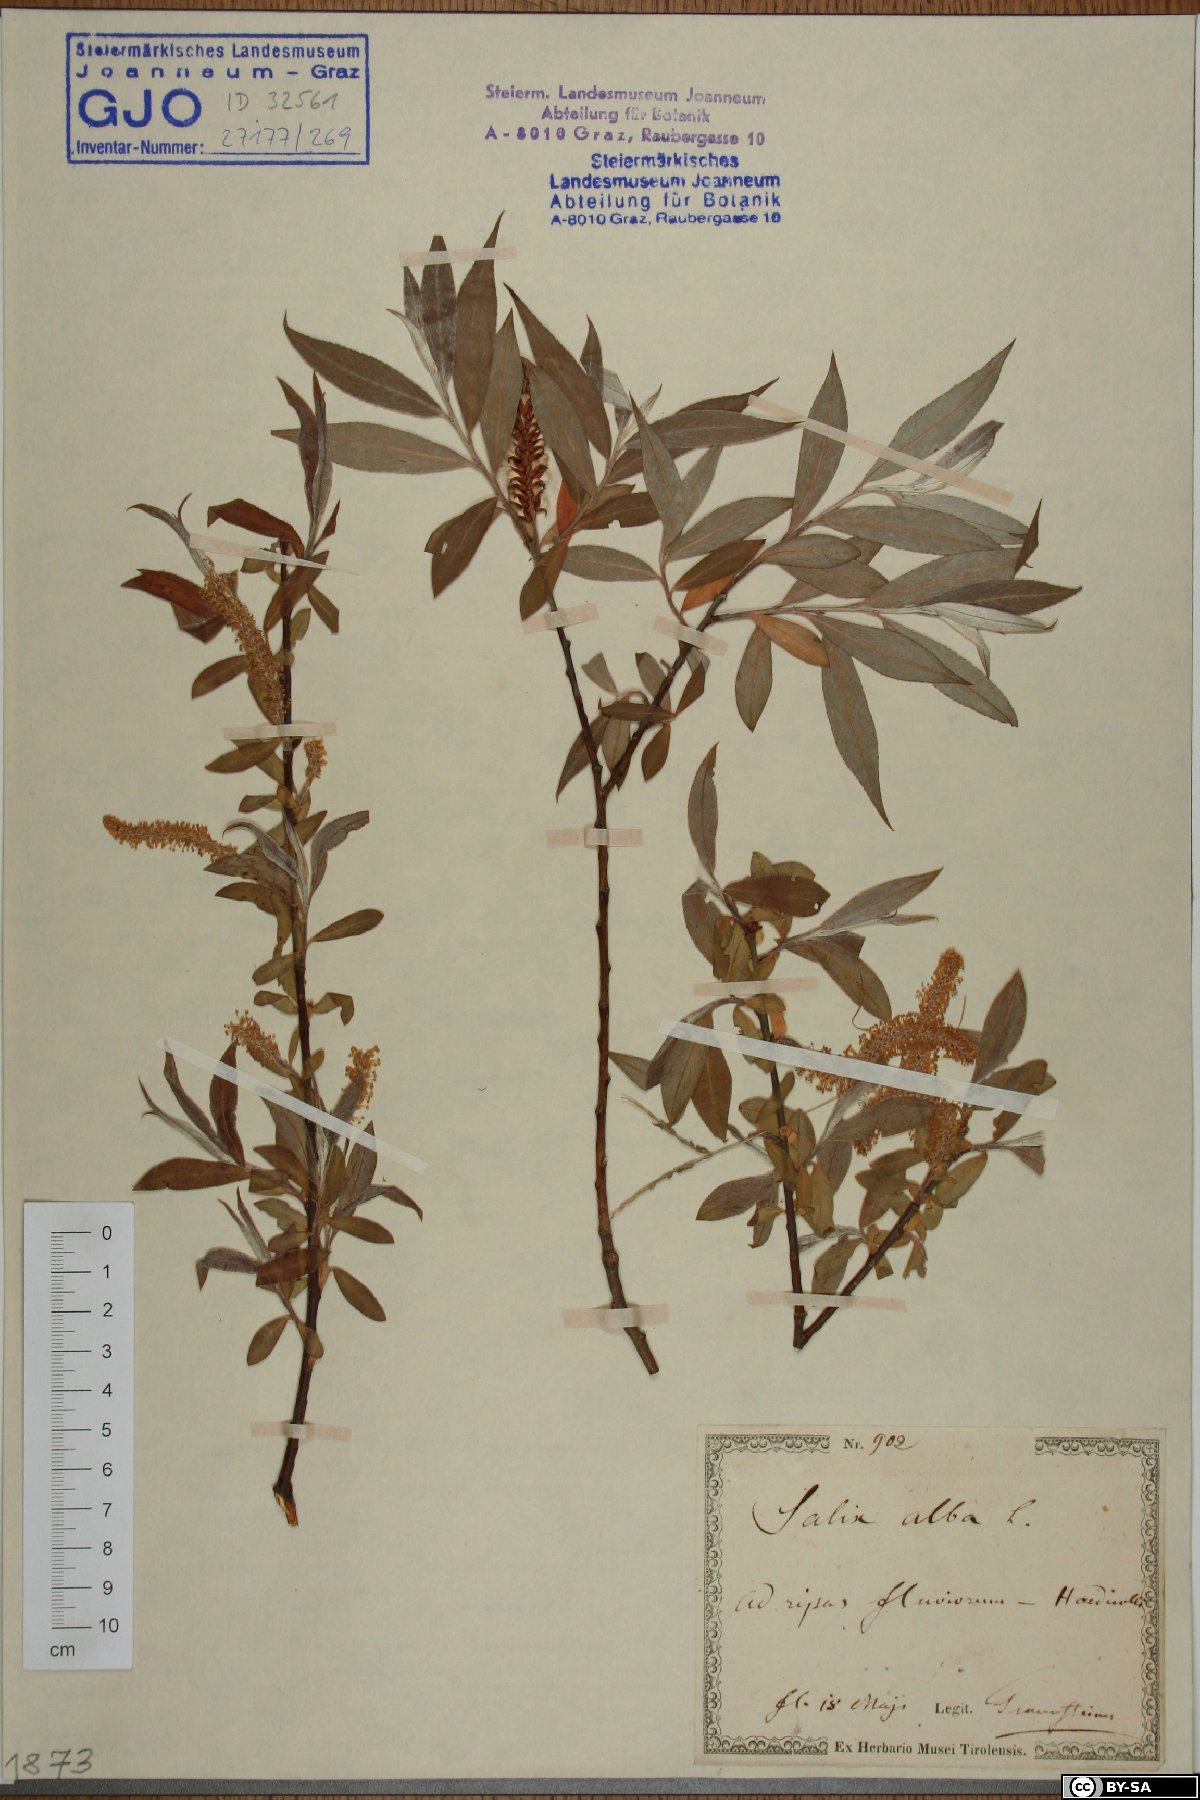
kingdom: Plantae
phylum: Tracheophyta
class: Magnoliopsida
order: Malpighiales
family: Salicaceae
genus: Salix
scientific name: Salix alba
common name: White willow
